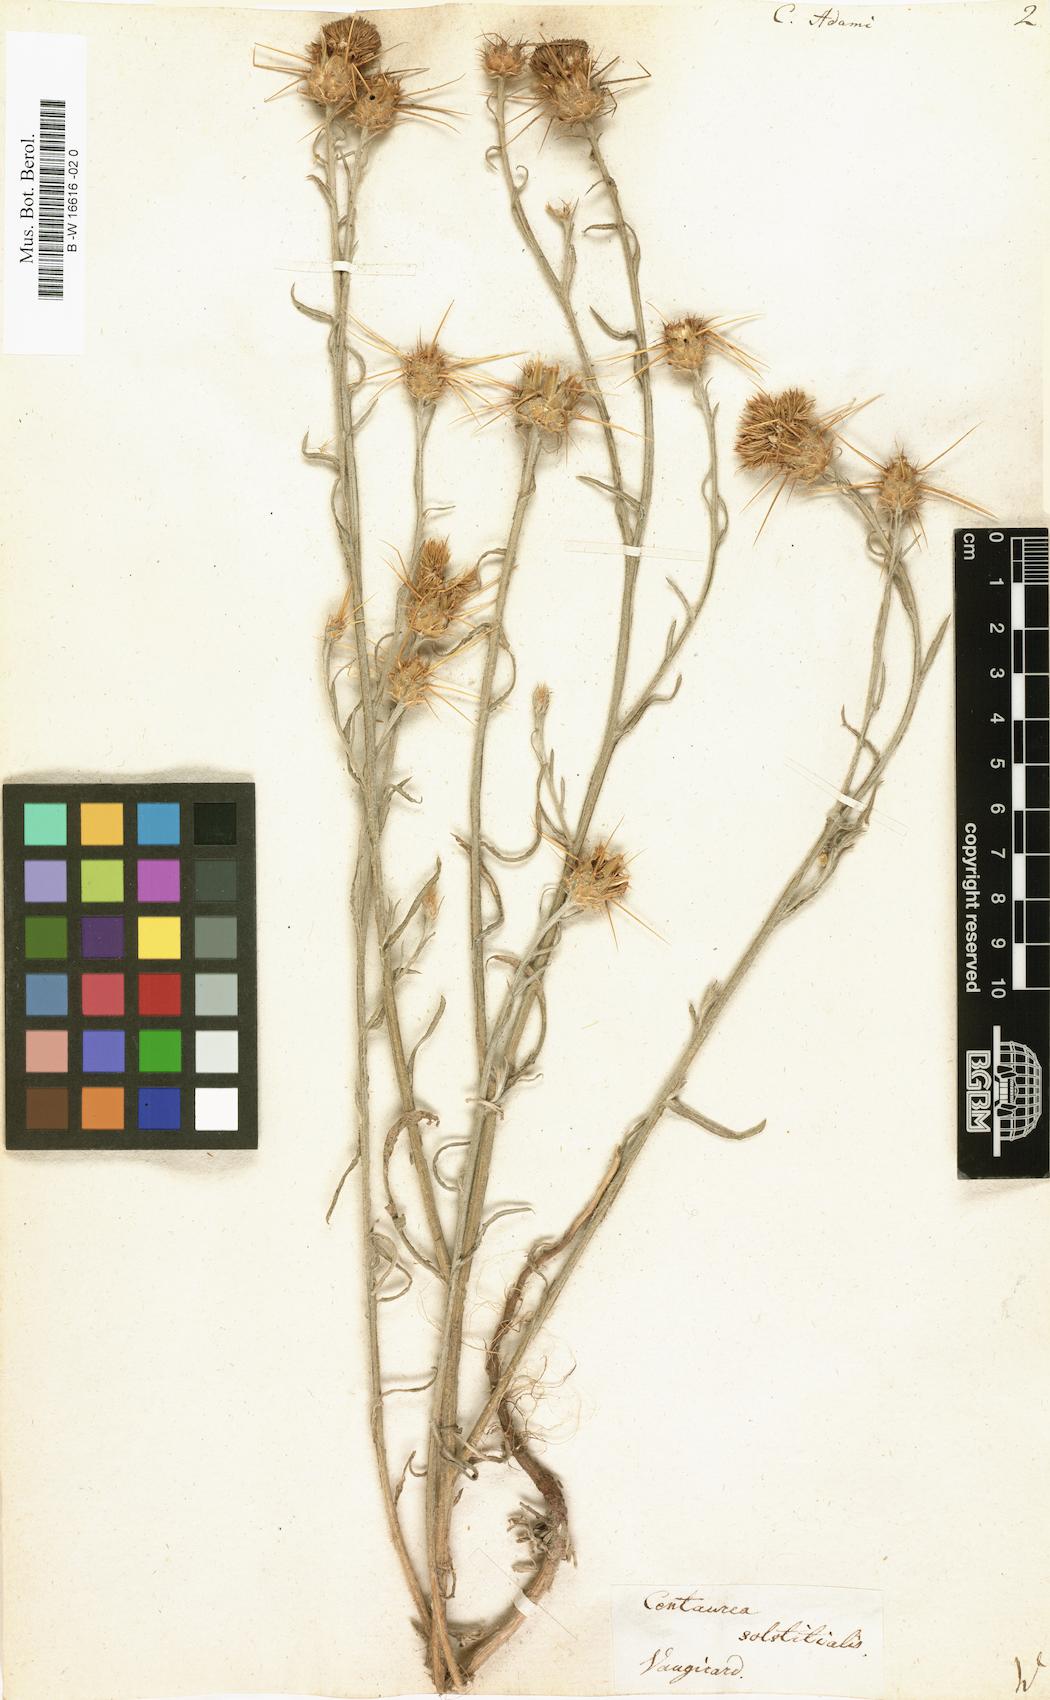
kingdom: Plantae
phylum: Tracheophyta
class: Magnoliopsida
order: Asterales
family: Asteraceae
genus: Centaurea
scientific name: Centaurea adami
